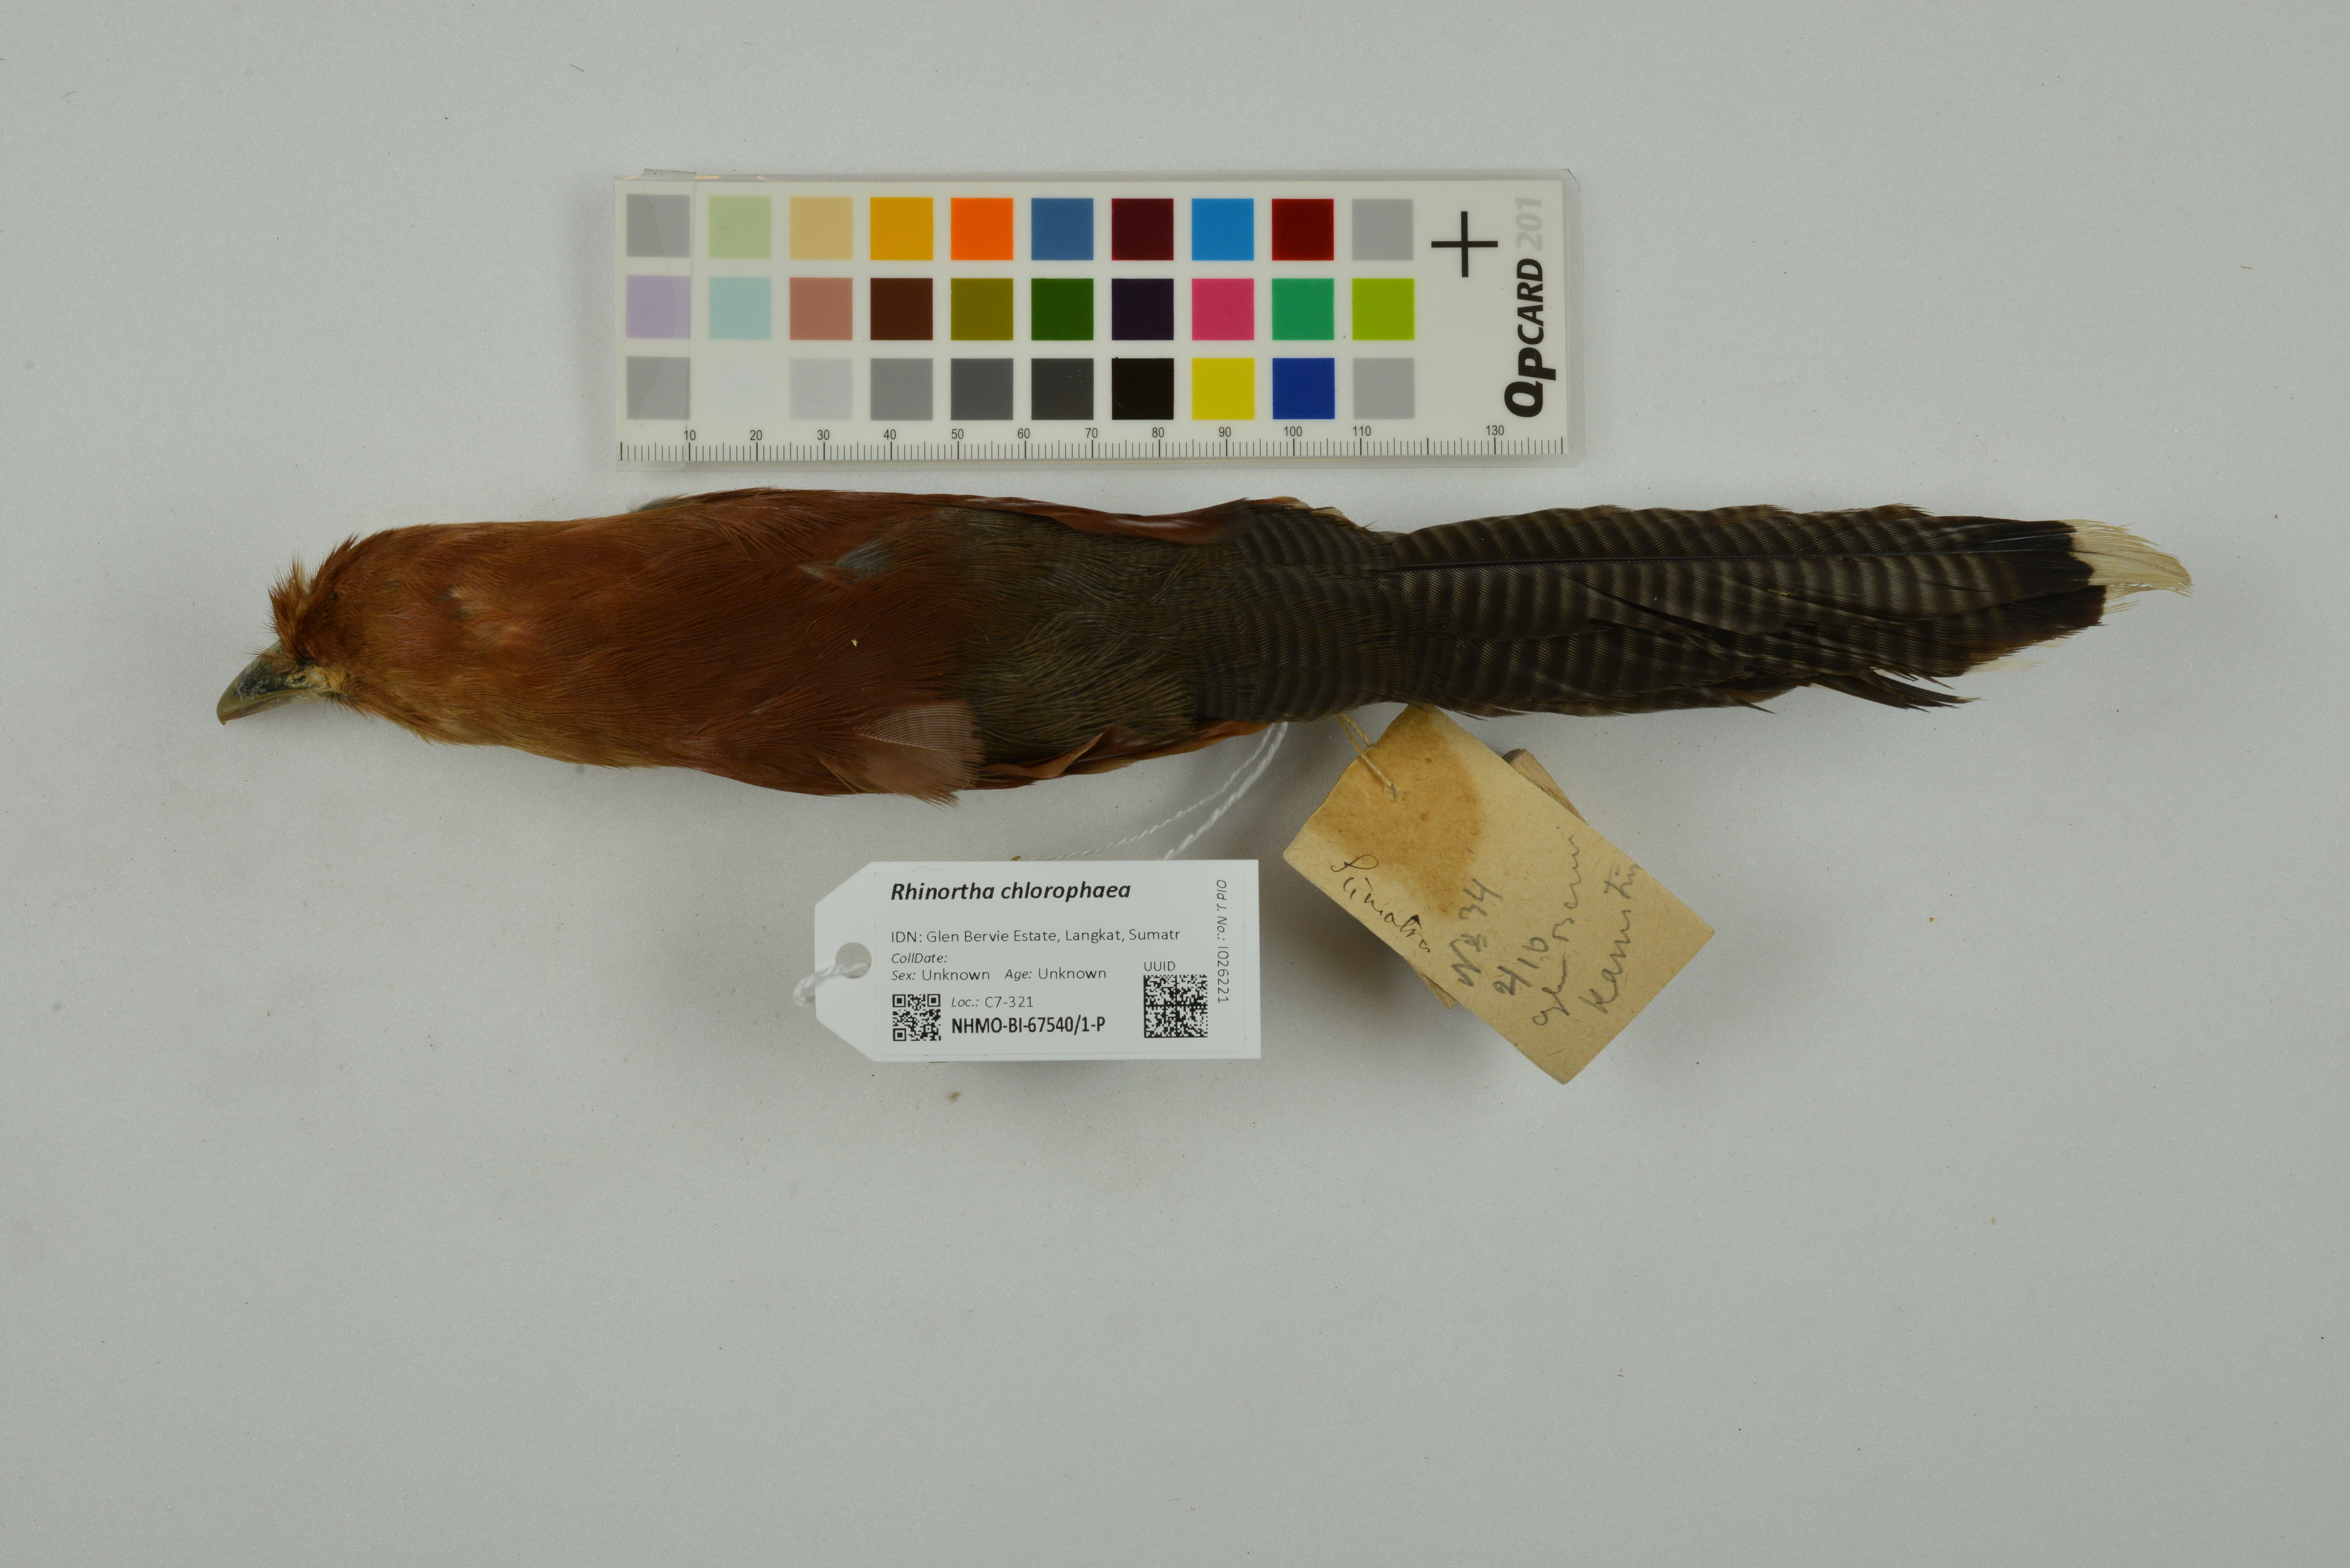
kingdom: Animalia
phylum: Chordata
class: Aves
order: Cuculiformes
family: Cuculidae
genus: Rhinortha
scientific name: Rhinortha chlorophaea
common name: Raffles's malkoha
